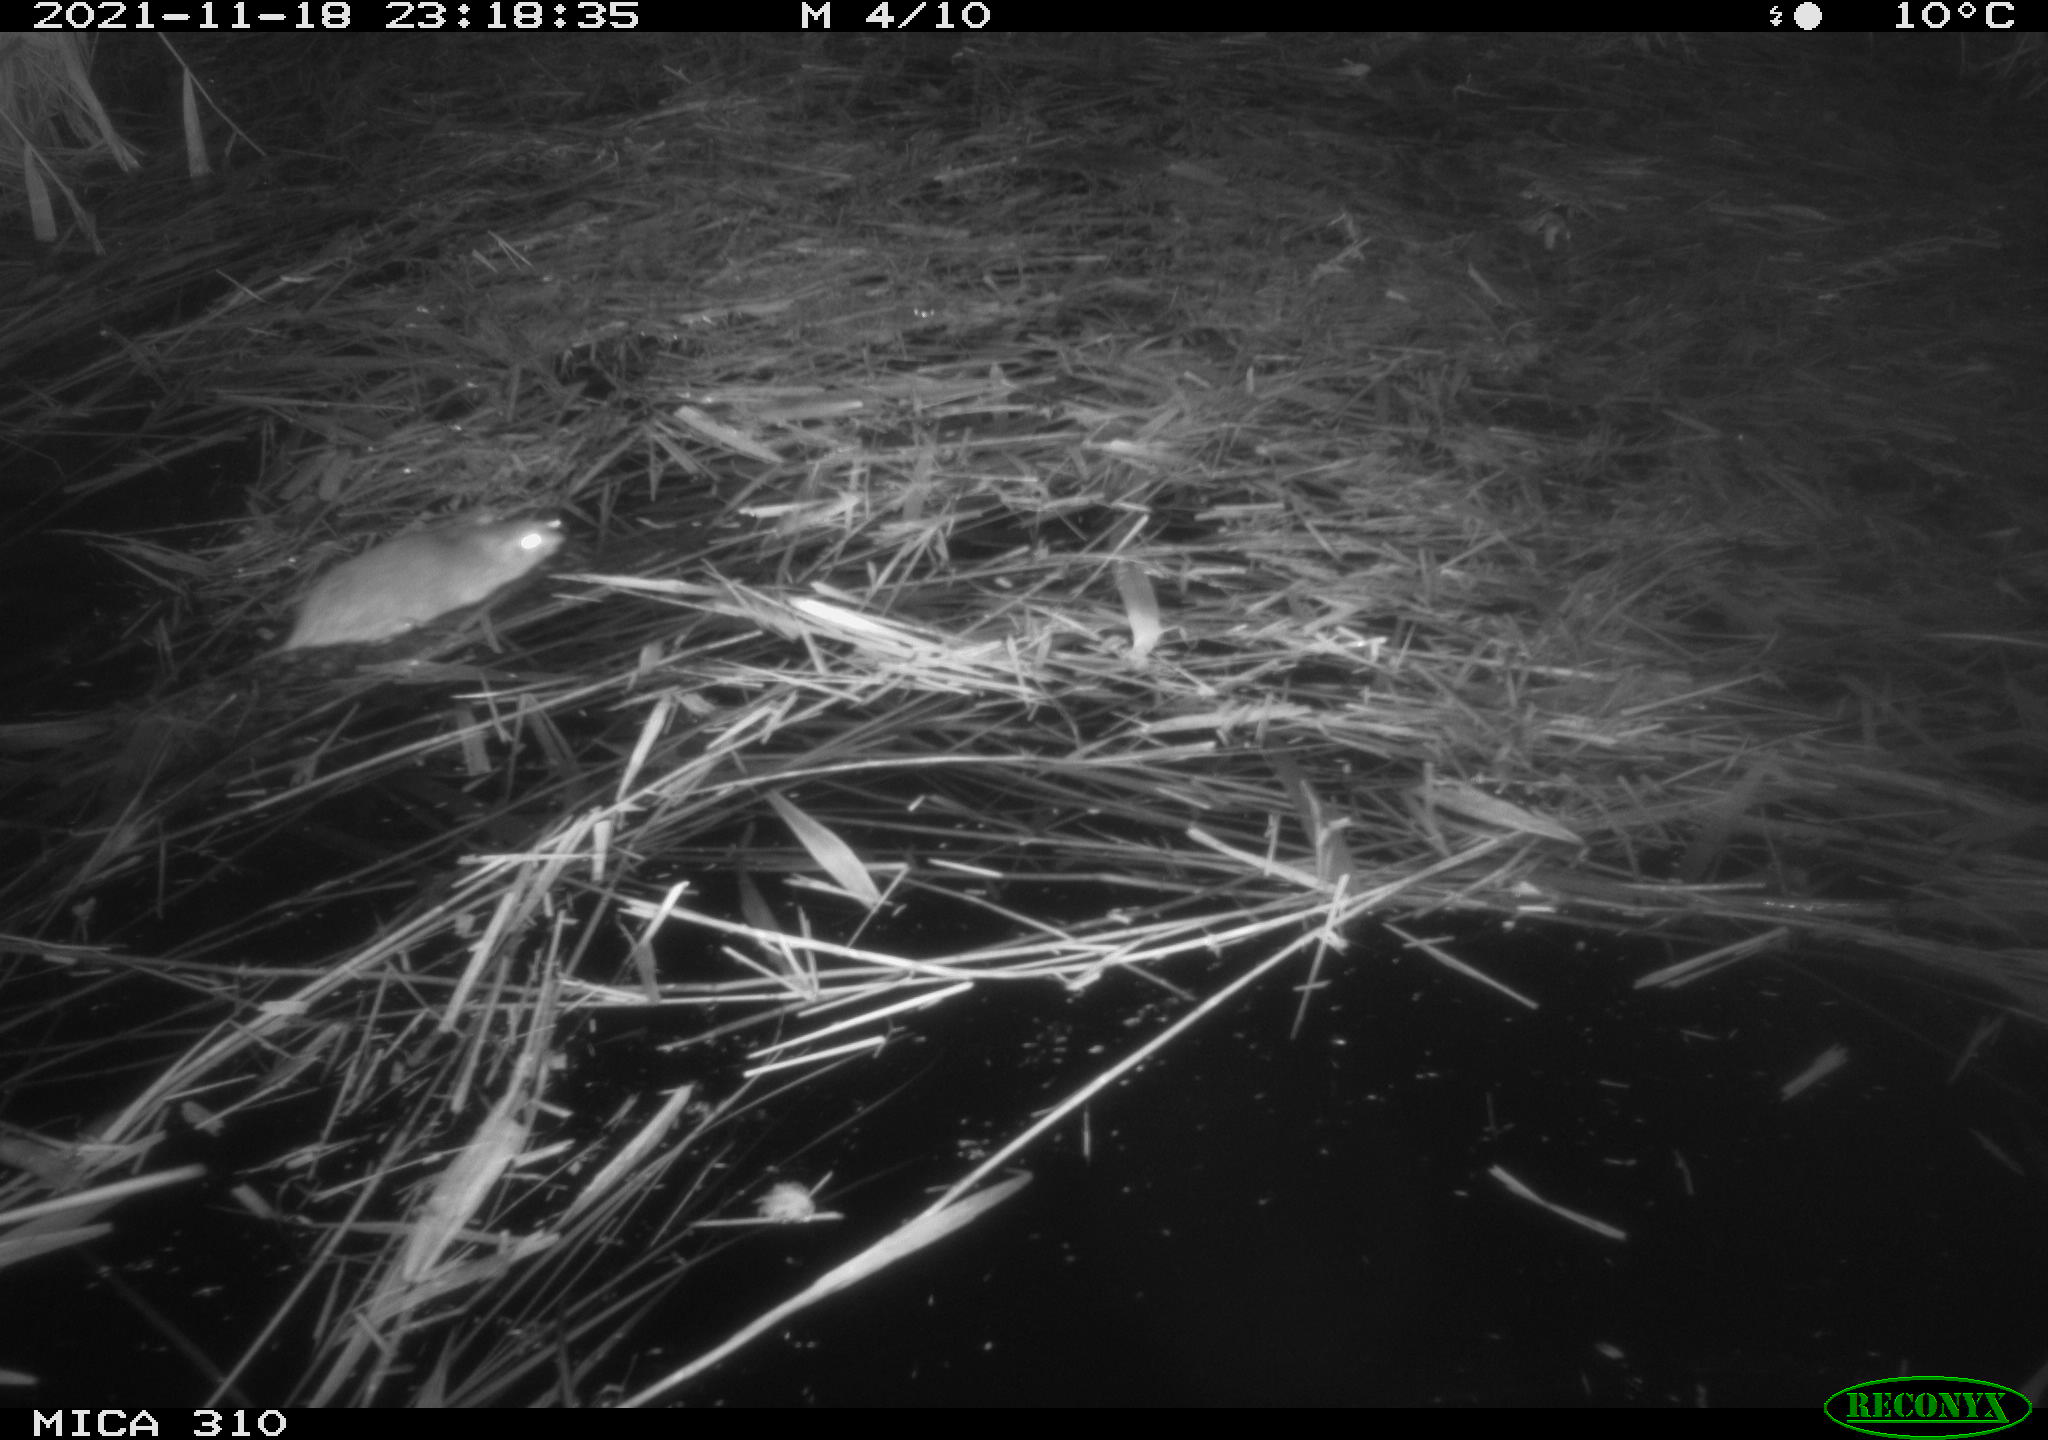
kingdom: Animalia
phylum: Chordata
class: Mammalia
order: Rodentia
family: Muridae
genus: Rattus
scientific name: Rattus norvegicus
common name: Brown rat
